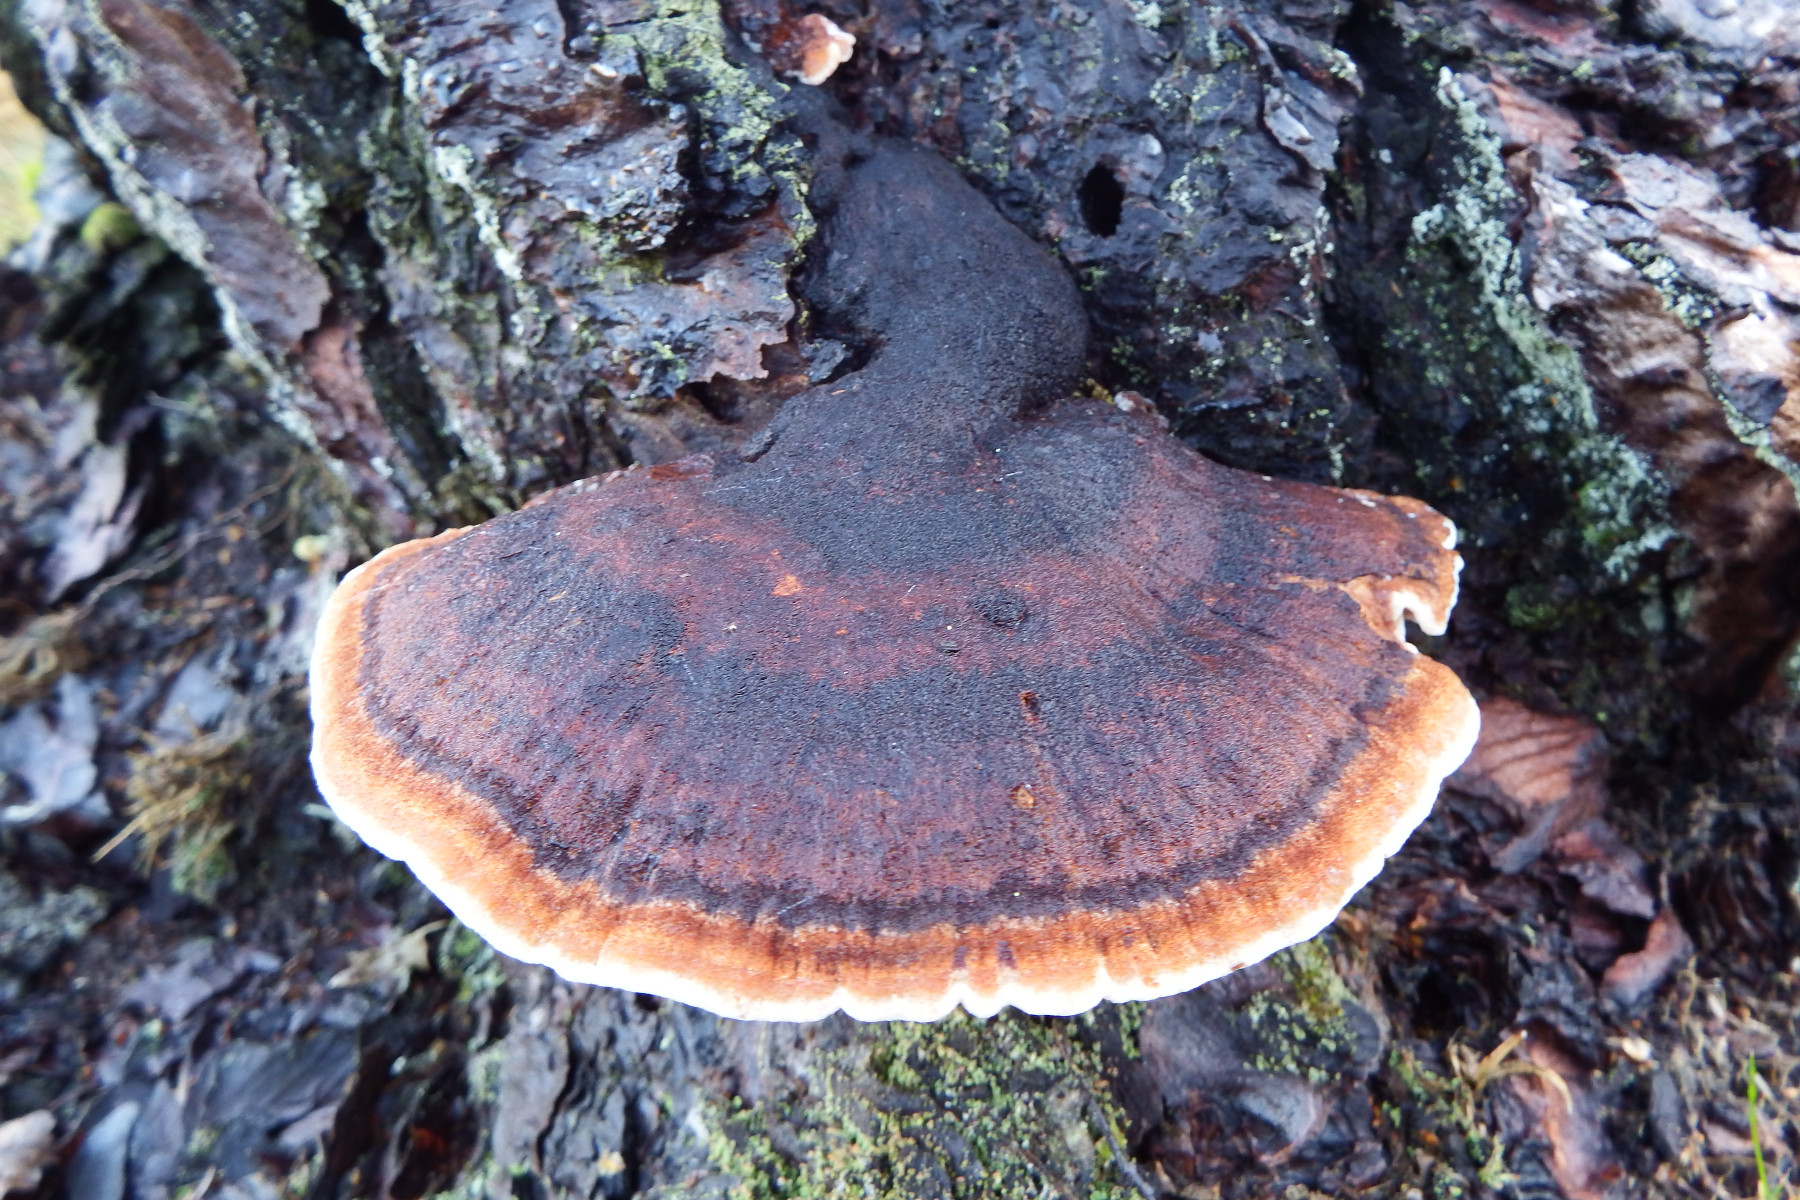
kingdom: Fungi
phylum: Basidiomycota
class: Agaricomycetes
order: Polyporales
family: Ischnodermataceae
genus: Ischnoderma
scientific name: Ischnoderma benzoinum
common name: gran-tjæreporesvamp
